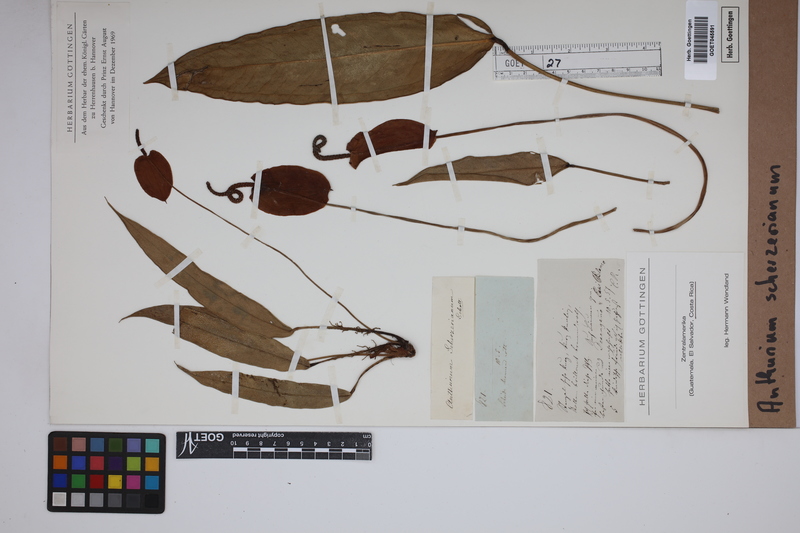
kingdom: Plantae
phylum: Tracheophyta
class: Liliopsida
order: Alismatales
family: Araceae
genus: Anthurium
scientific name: Anthurium scherzerianum
